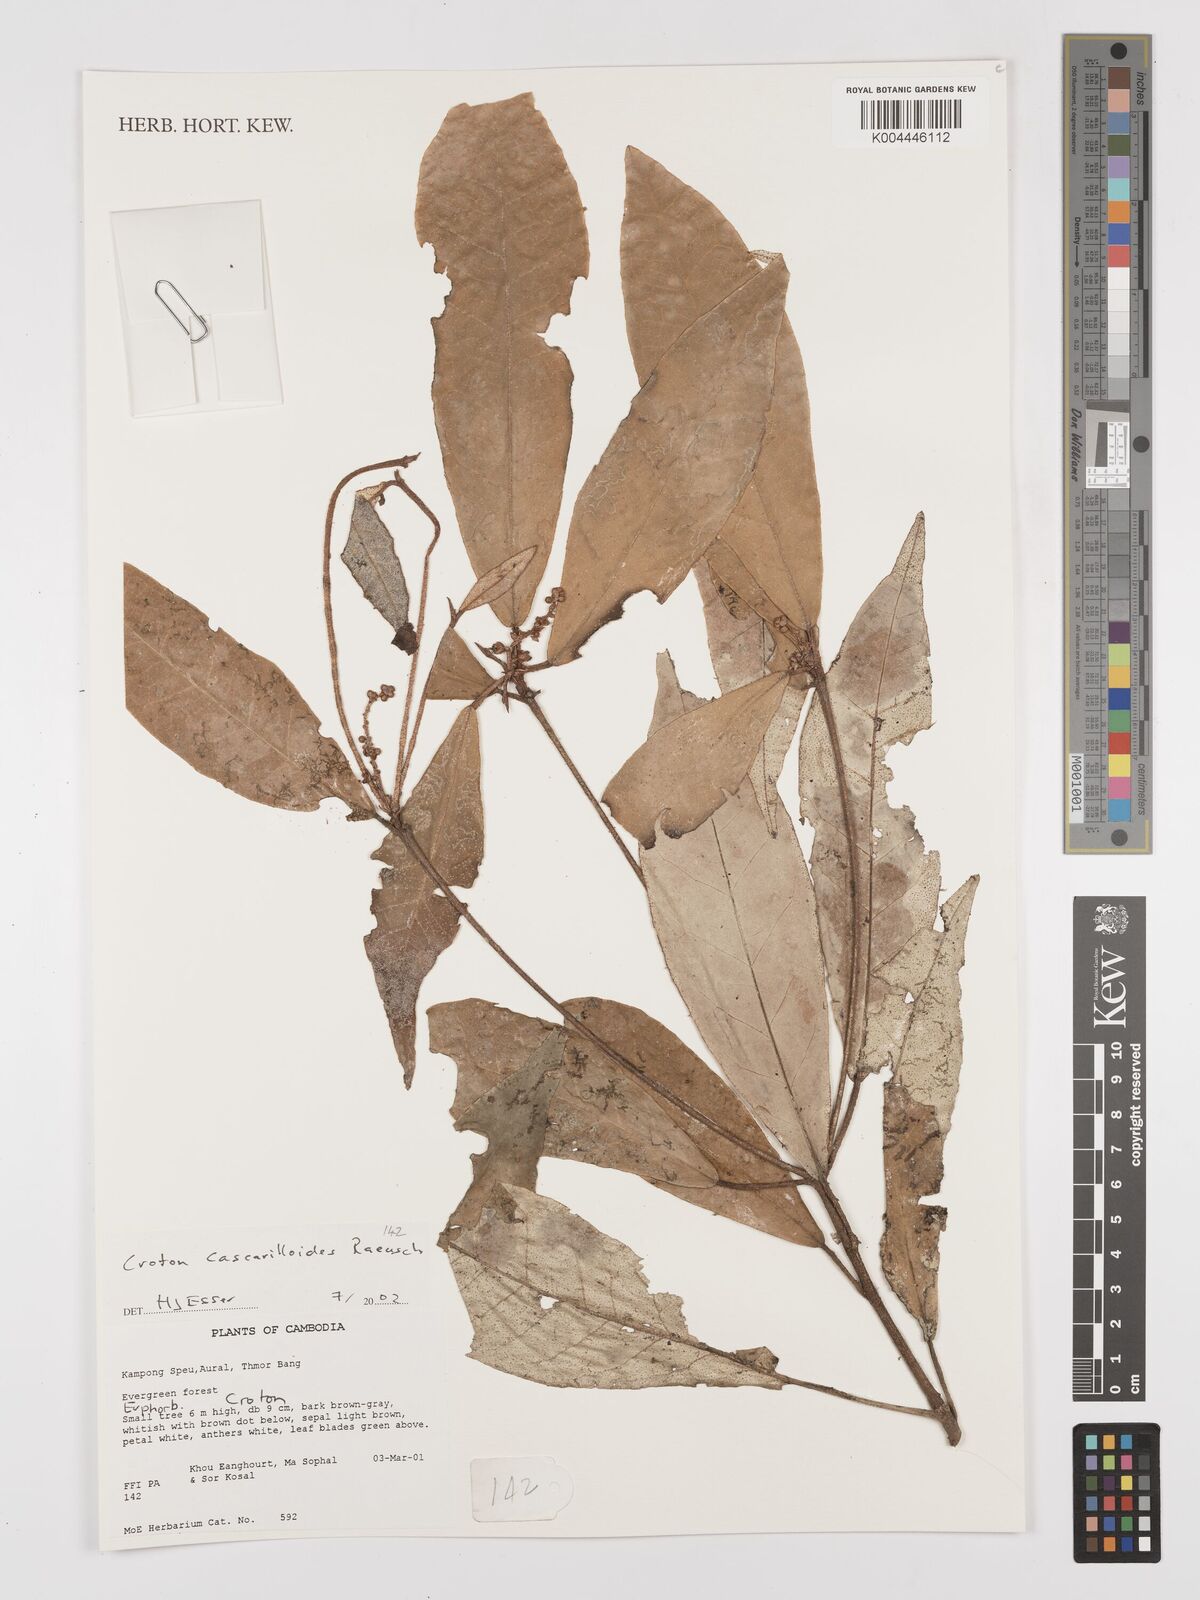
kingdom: Plantae
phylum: Tracheophyta
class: Magnoliopsida
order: Malpighiales
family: Euphorbiaceae
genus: Croton
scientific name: Croton cascarilloides
